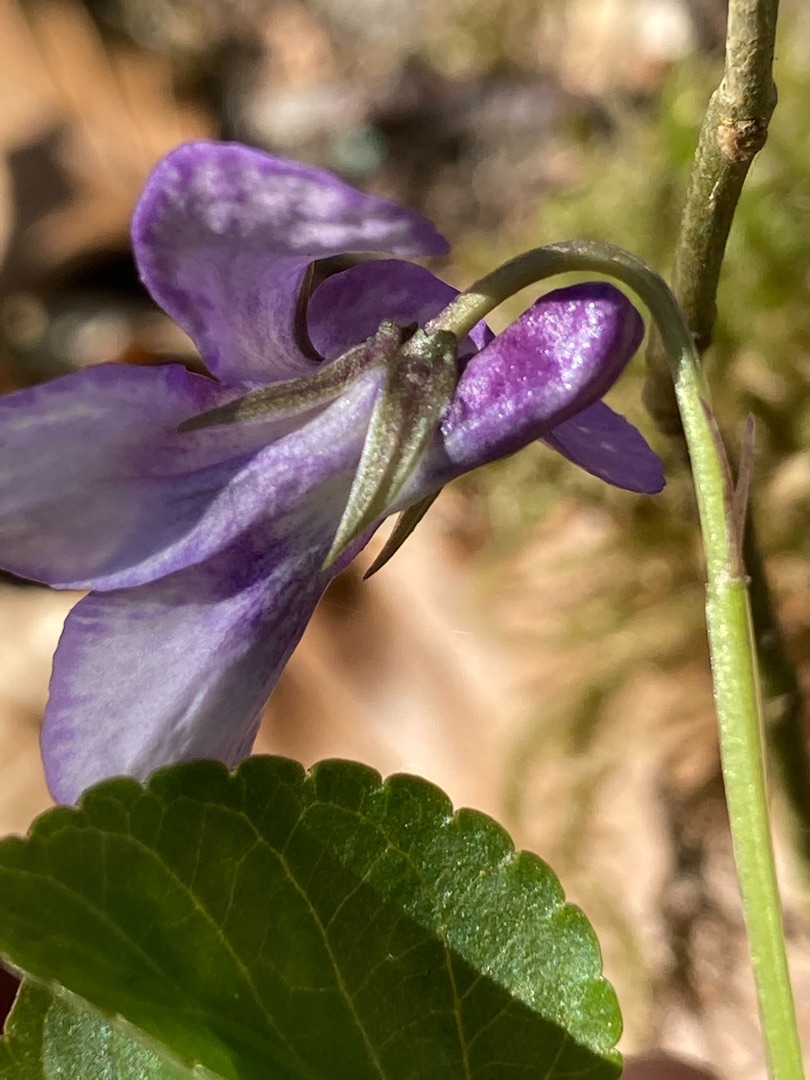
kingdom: Plantae
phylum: Tracheophyta
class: Magnoliopsida
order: Malpighiales
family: Violaceae
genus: Viola
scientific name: Viola reichenbachiana
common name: Skov-viol
